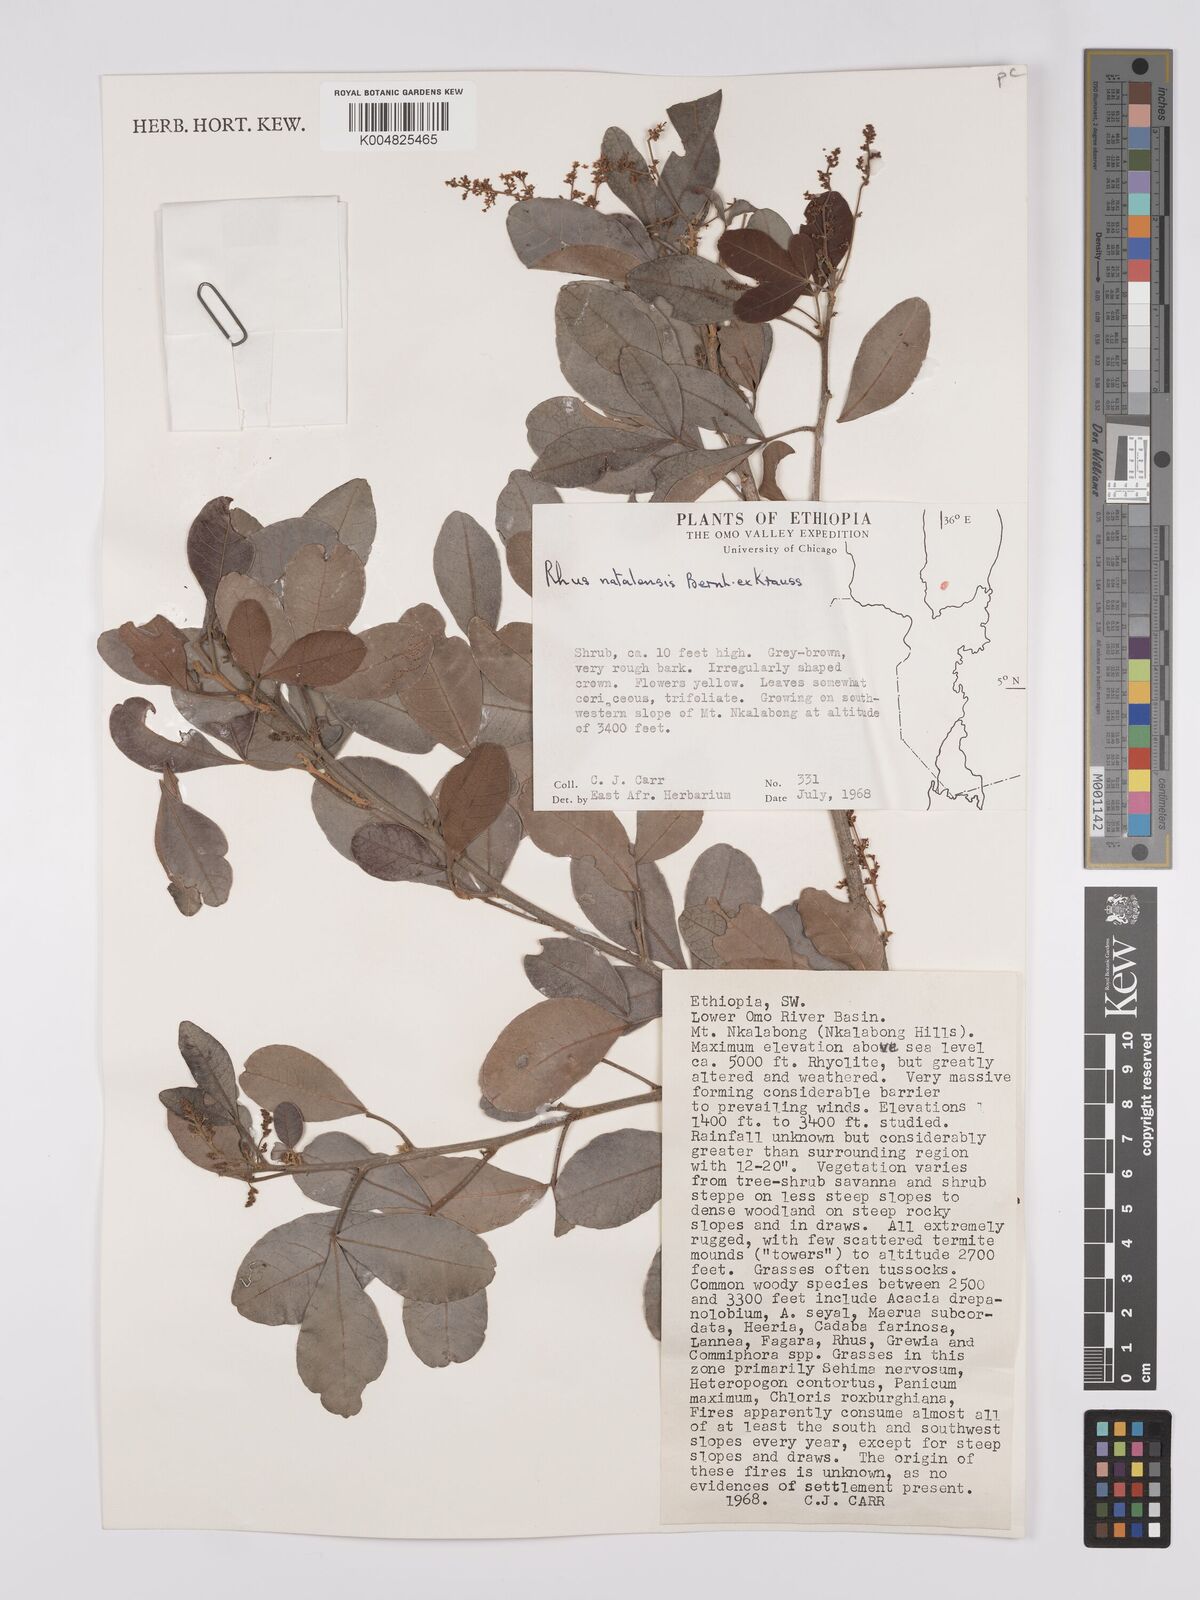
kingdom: Plantae
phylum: Tracheophyta
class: Magnoliopsida
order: Sapindales
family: Anacardiaceae
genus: Searsia
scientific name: Searsia natalensis
